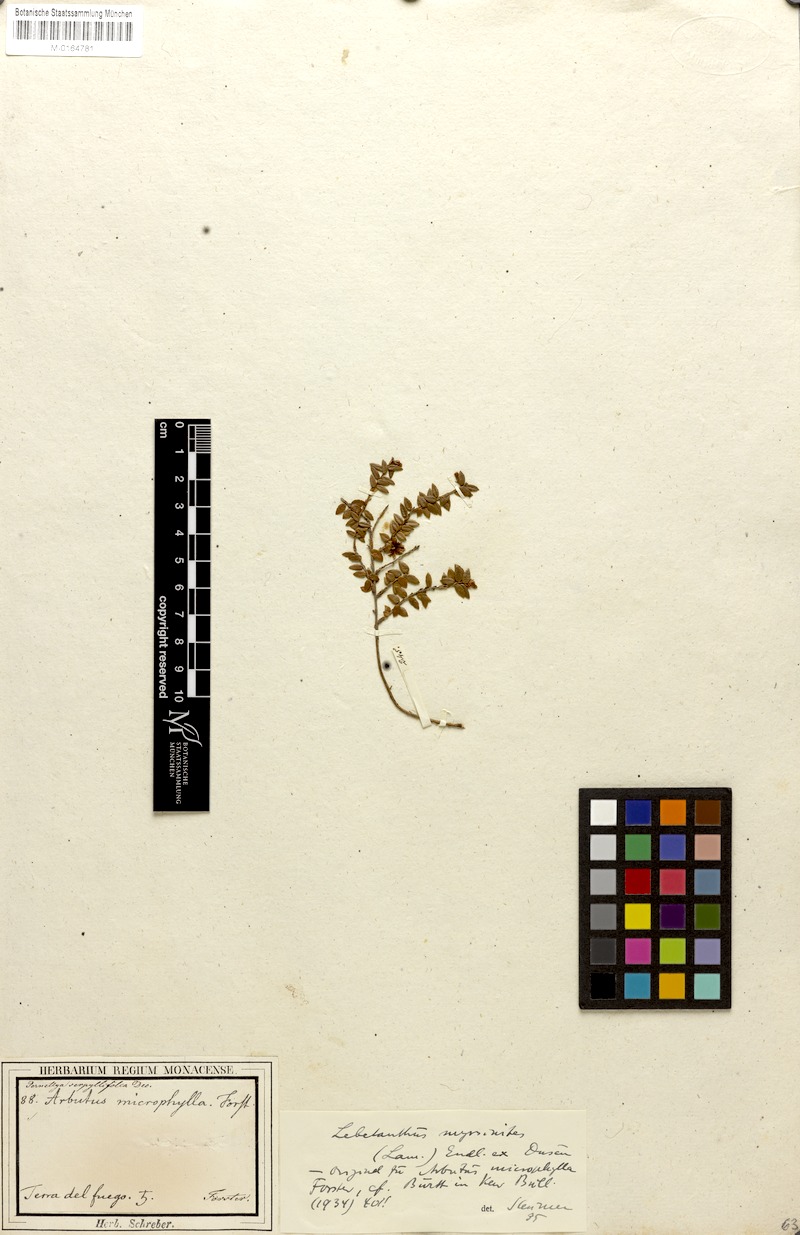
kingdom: Plantae
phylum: Tracheophyta
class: Magnoliopsida
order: Ericales
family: Ericaceae
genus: Gaultheria
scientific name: Gaultheria antarctica
